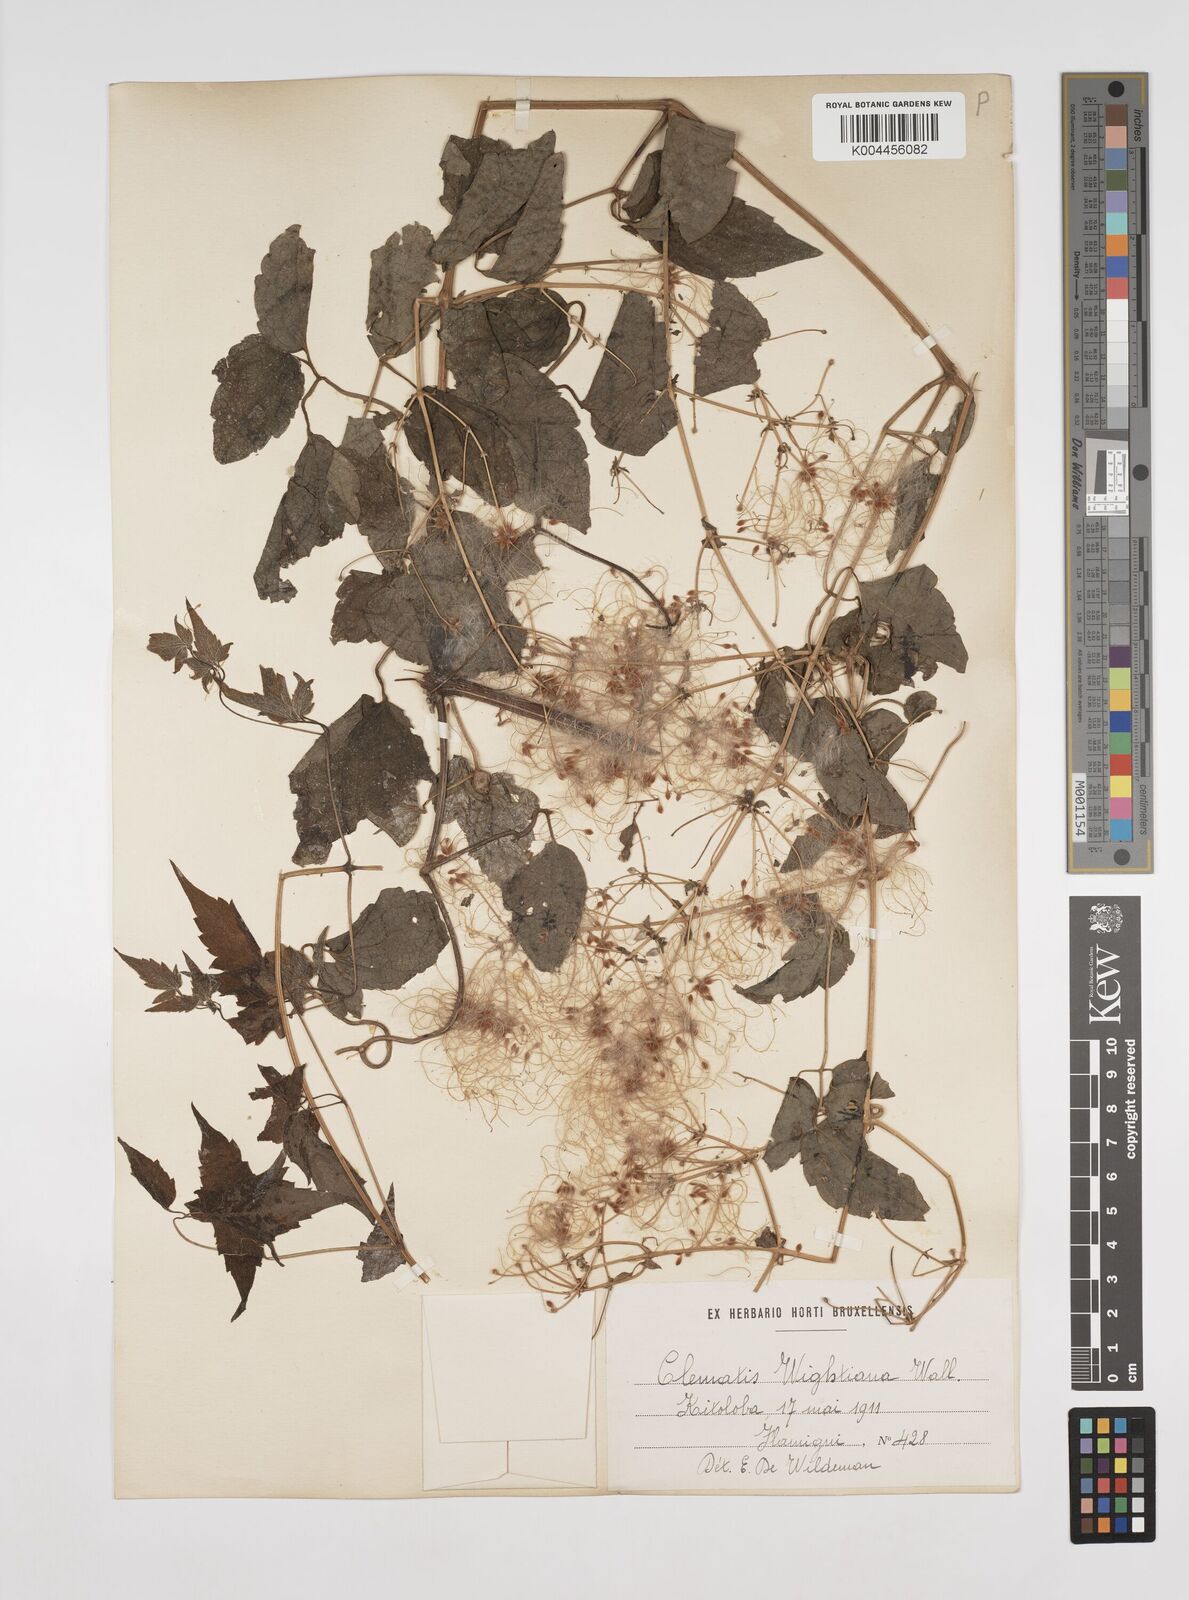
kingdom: Plantae
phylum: Tracheophyta
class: Magnoliopsida
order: Ranunculales
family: Ranunculaceae
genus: Clematis
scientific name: Clematis orientalis
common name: Oriental virgin's-bower
